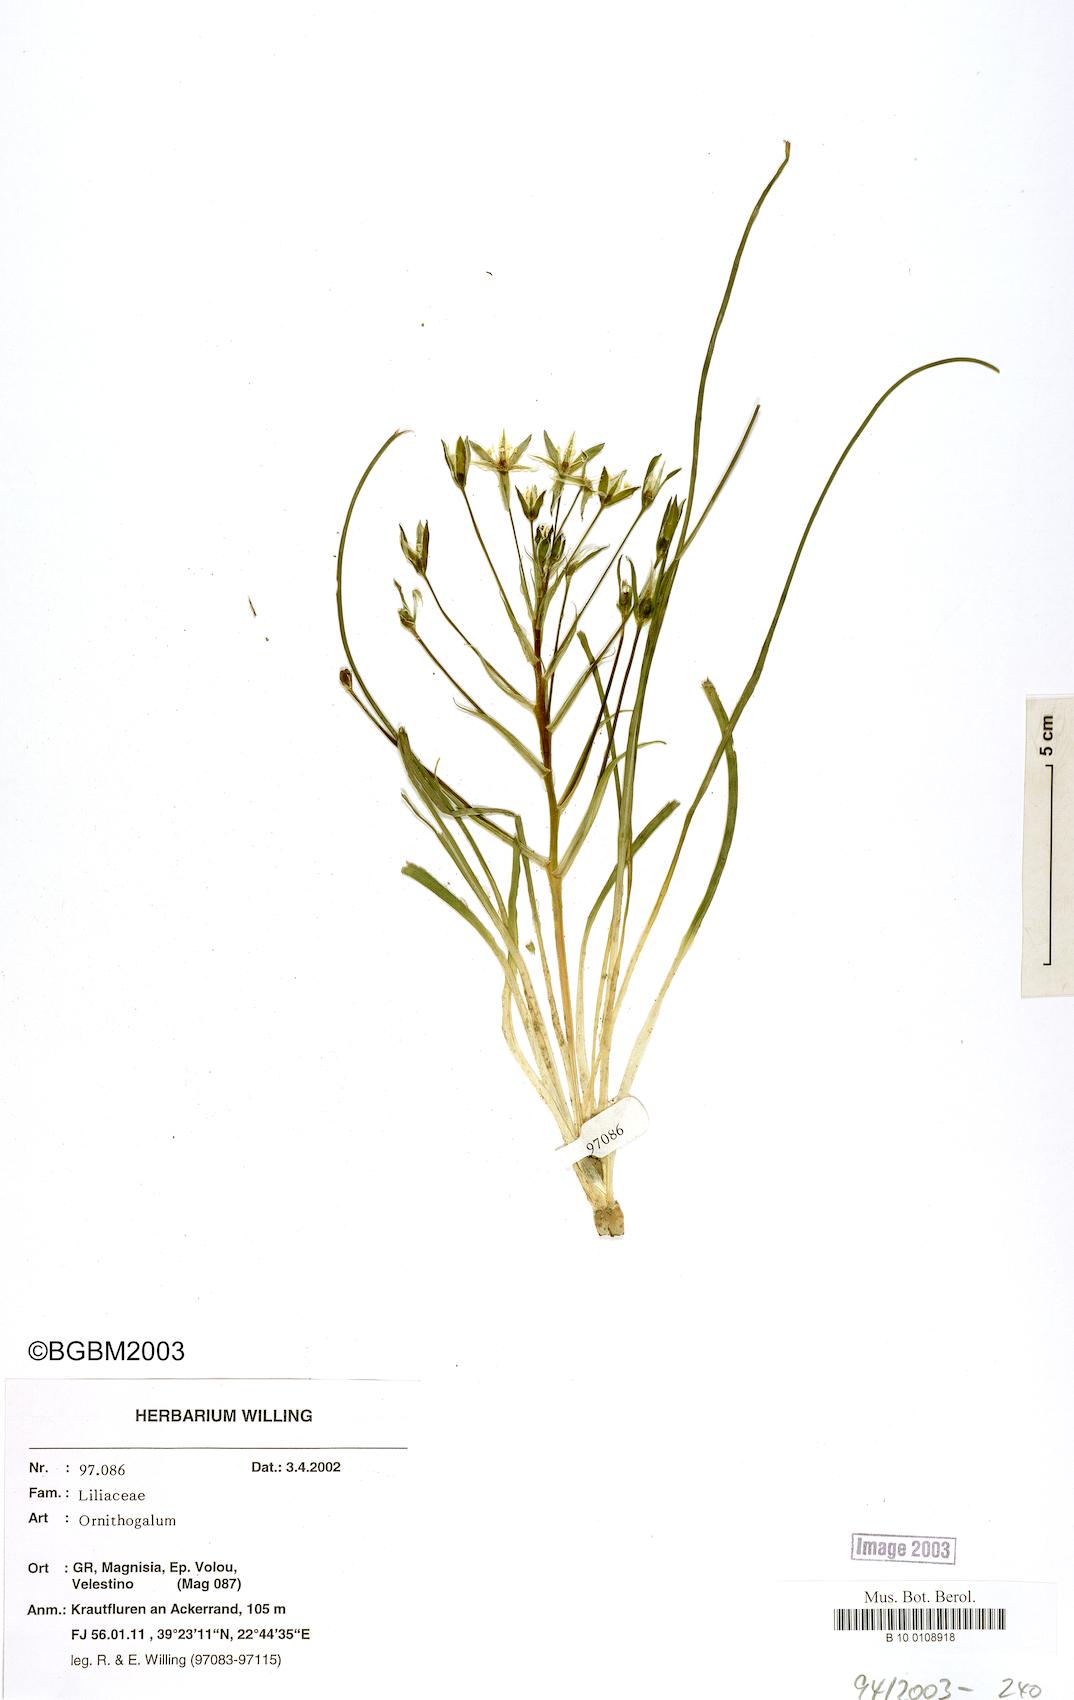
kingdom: Plantae
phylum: Tracheophyta
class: Liliopsida
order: Asparagales
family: Asparagaceae
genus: Ornithogalum
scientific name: Ornithogalum
